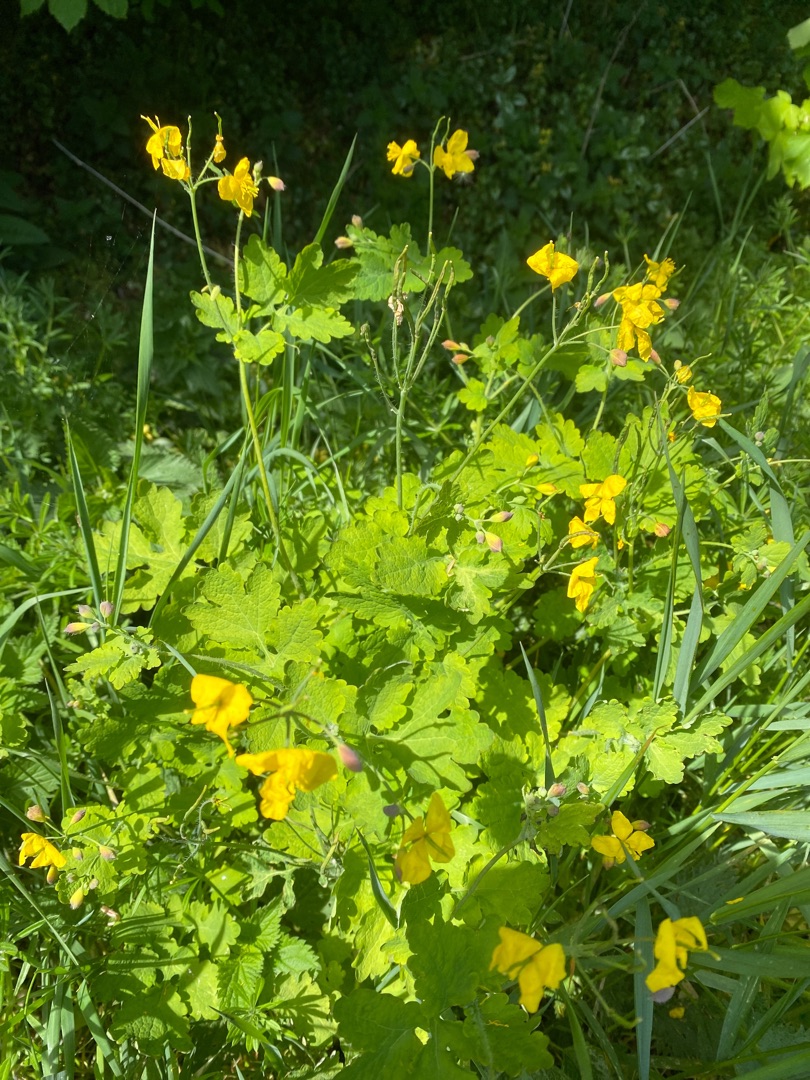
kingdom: Plantae
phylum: Tracheophyta
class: Magnoliopsida
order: Ranunculales
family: Papaveraceae
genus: Chelidonium
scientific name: Chelidonium majus
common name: Svaleurt
